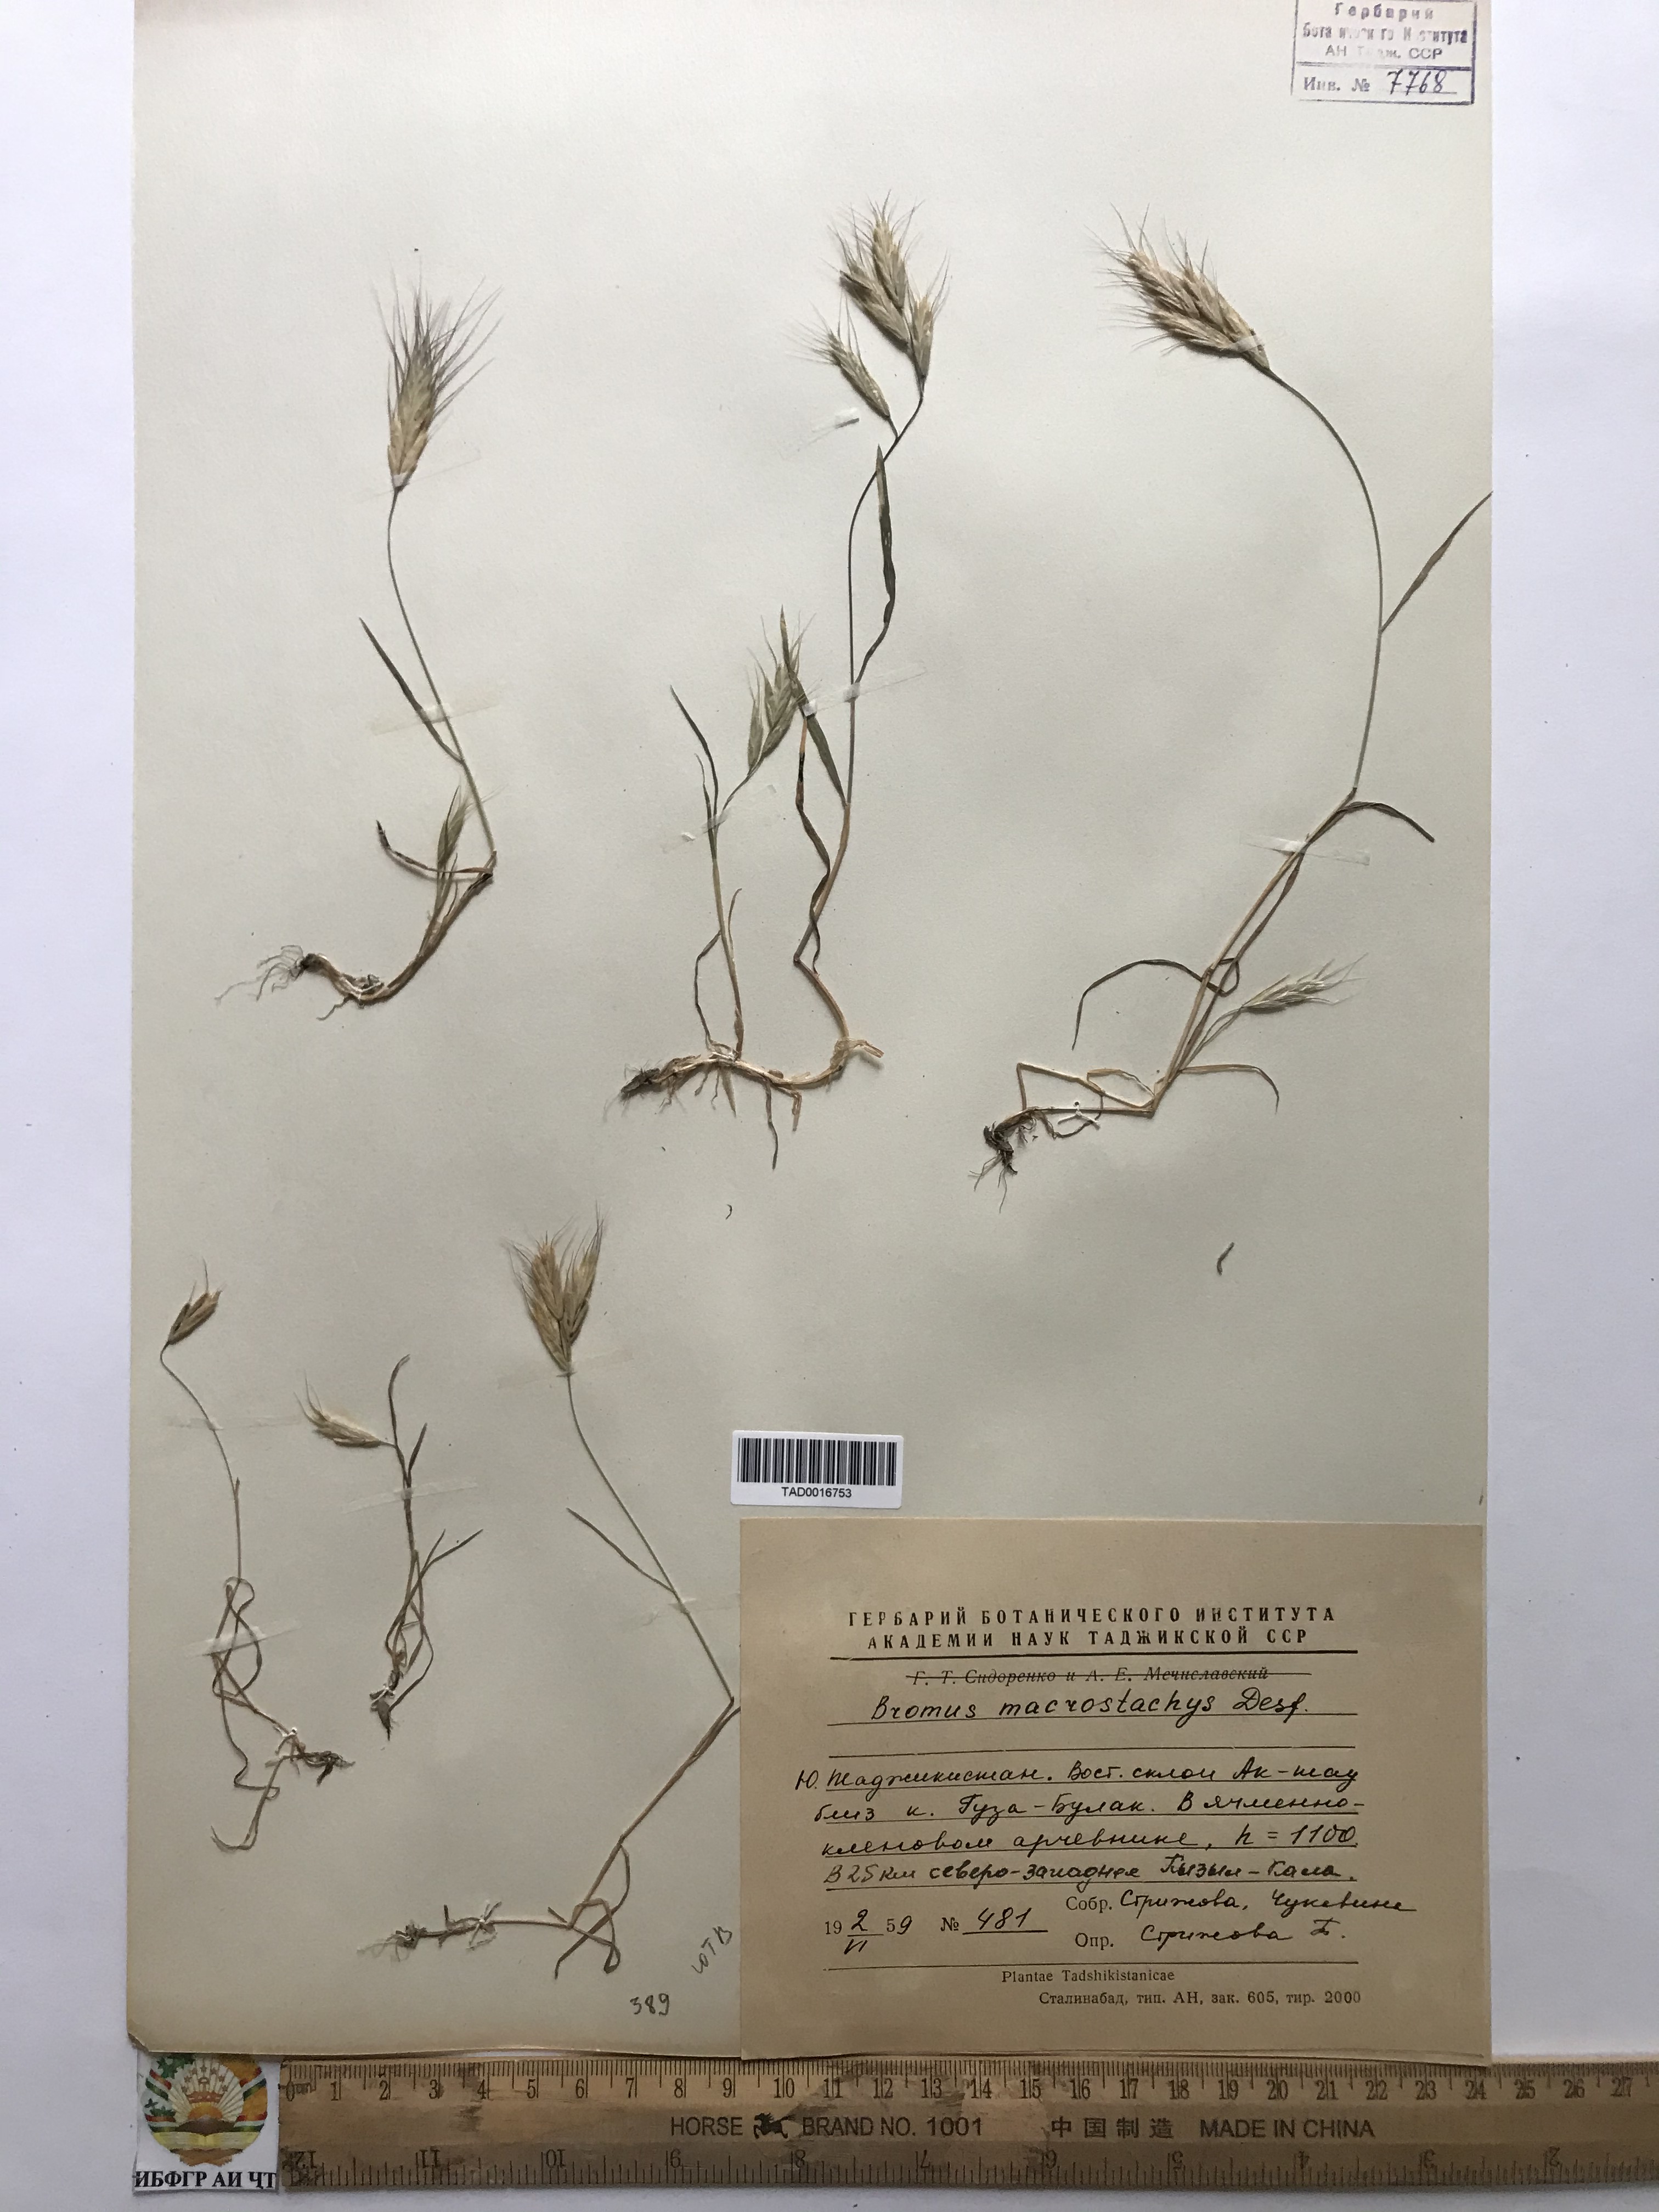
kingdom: Plantae
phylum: Tracheophyta
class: Liliopsida
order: Poales
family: Poaceae
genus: Bromus
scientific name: Bromus lanceolatus
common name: Mediterranean brome
